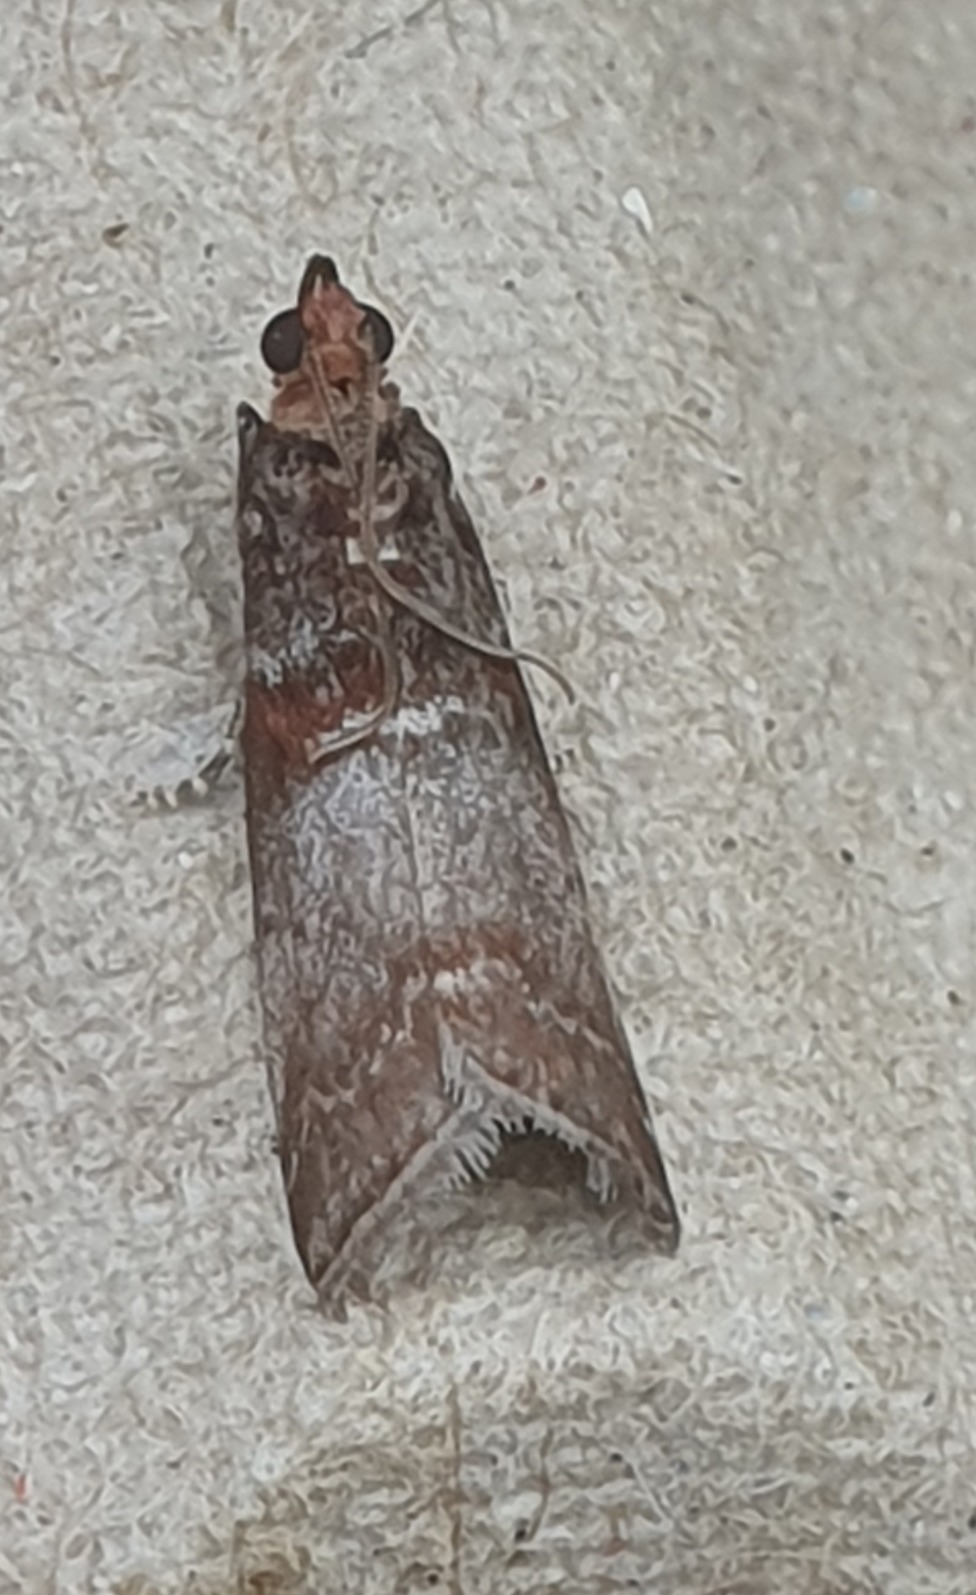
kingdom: Animalia
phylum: Arthropoda
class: Insecta
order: Lepidoptera
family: Pyralidae
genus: Acrobasis
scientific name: Acrobasis advenella
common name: Rønnehalvmøl
